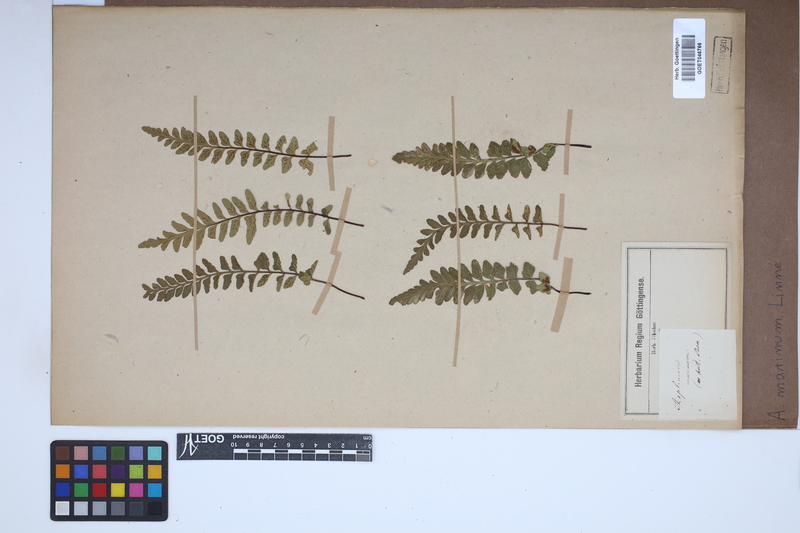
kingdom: Plantae
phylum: Tracheophyta
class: Polypodiopsida
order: Polypodiales
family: Aspleniaceae
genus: Asplenium
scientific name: Asplenium marinum
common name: Sea spleenwort
